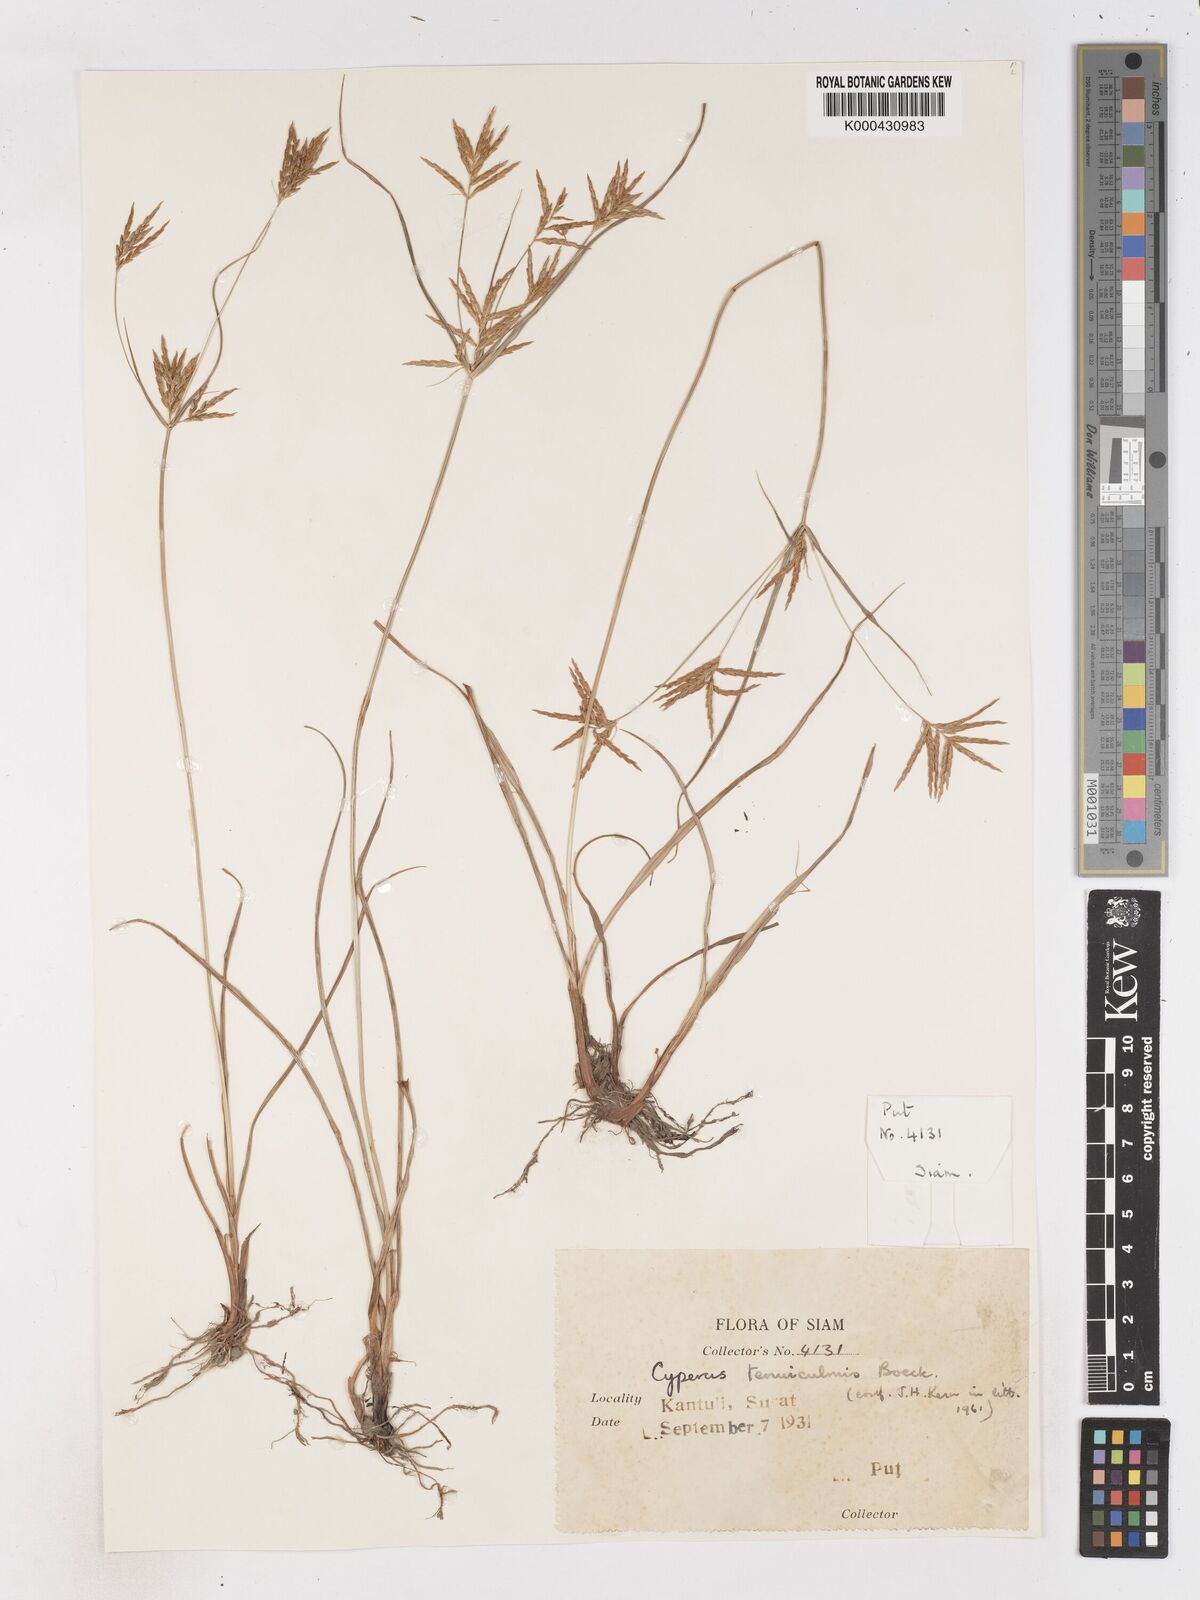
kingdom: Plantae
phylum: Tracheophyta
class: Liliopsida
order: Poales
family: Cyperaceae
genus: Cyperus
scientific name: Cyperus tenuiculmis
